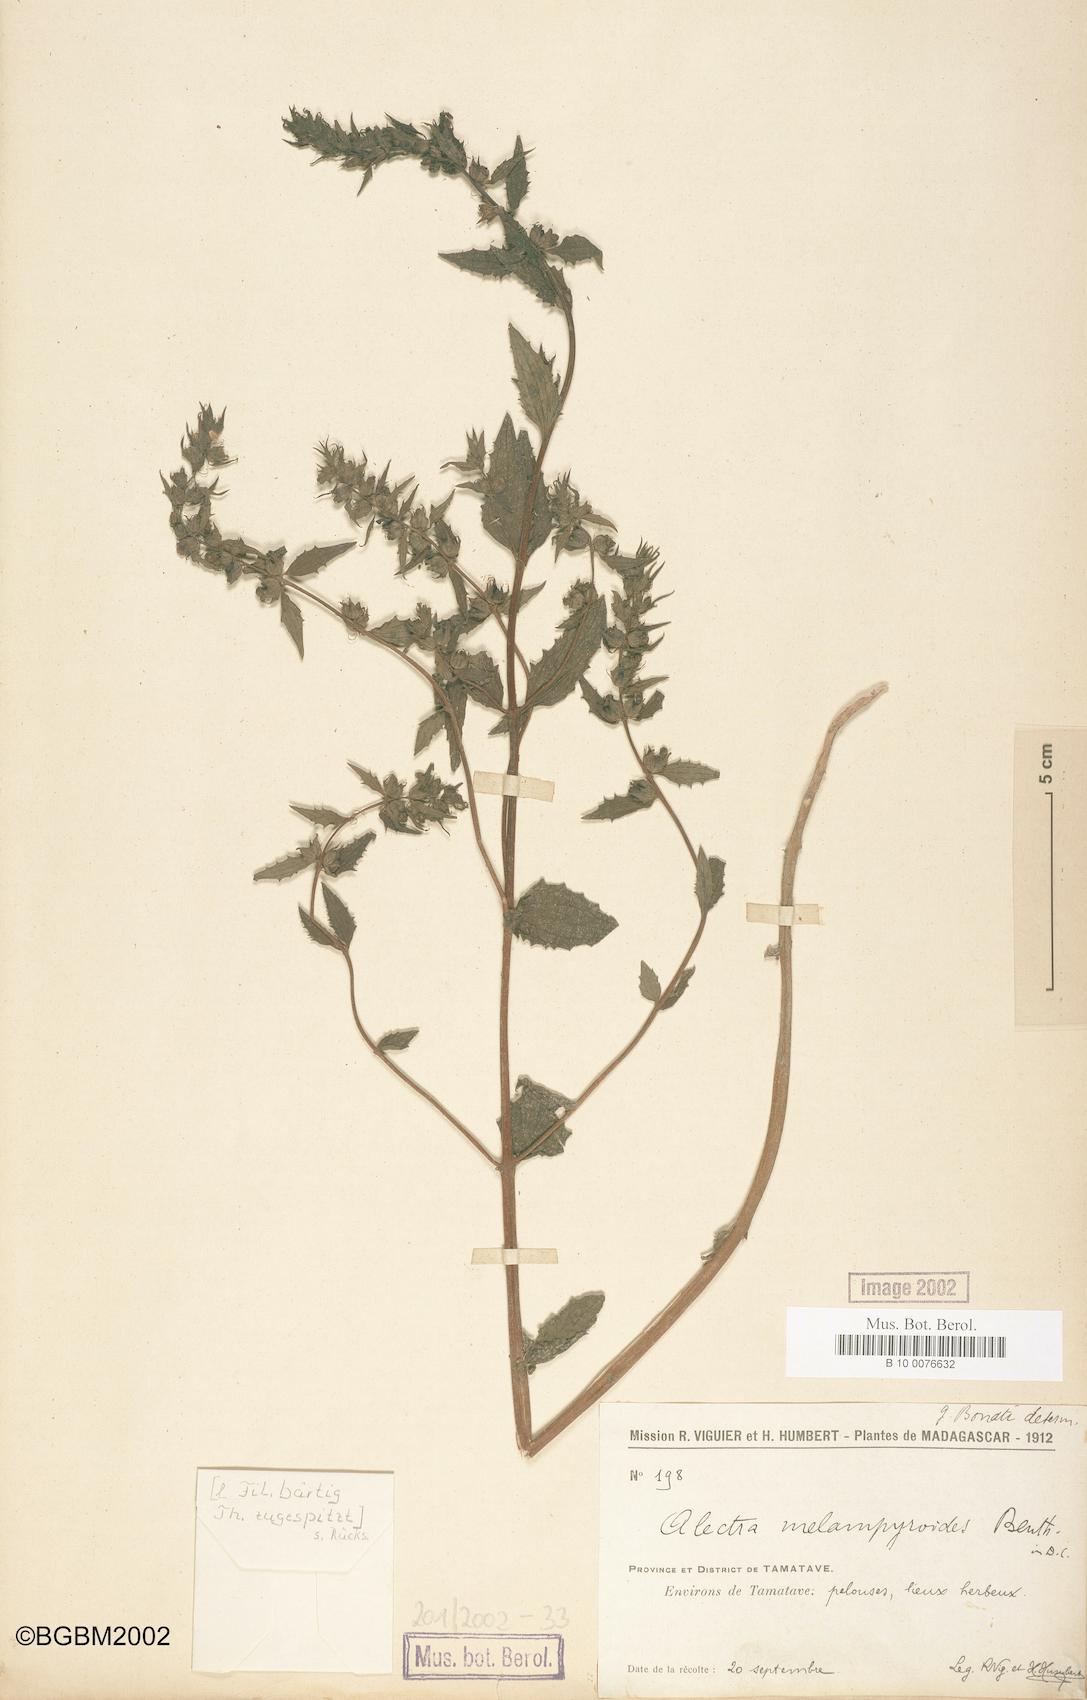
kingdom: Plantae
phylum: Tracheophyta
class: Magnoliopsida
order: Lamiales
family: Orobanchaceae
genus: Alectra
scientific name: Alectra sessiliflora
